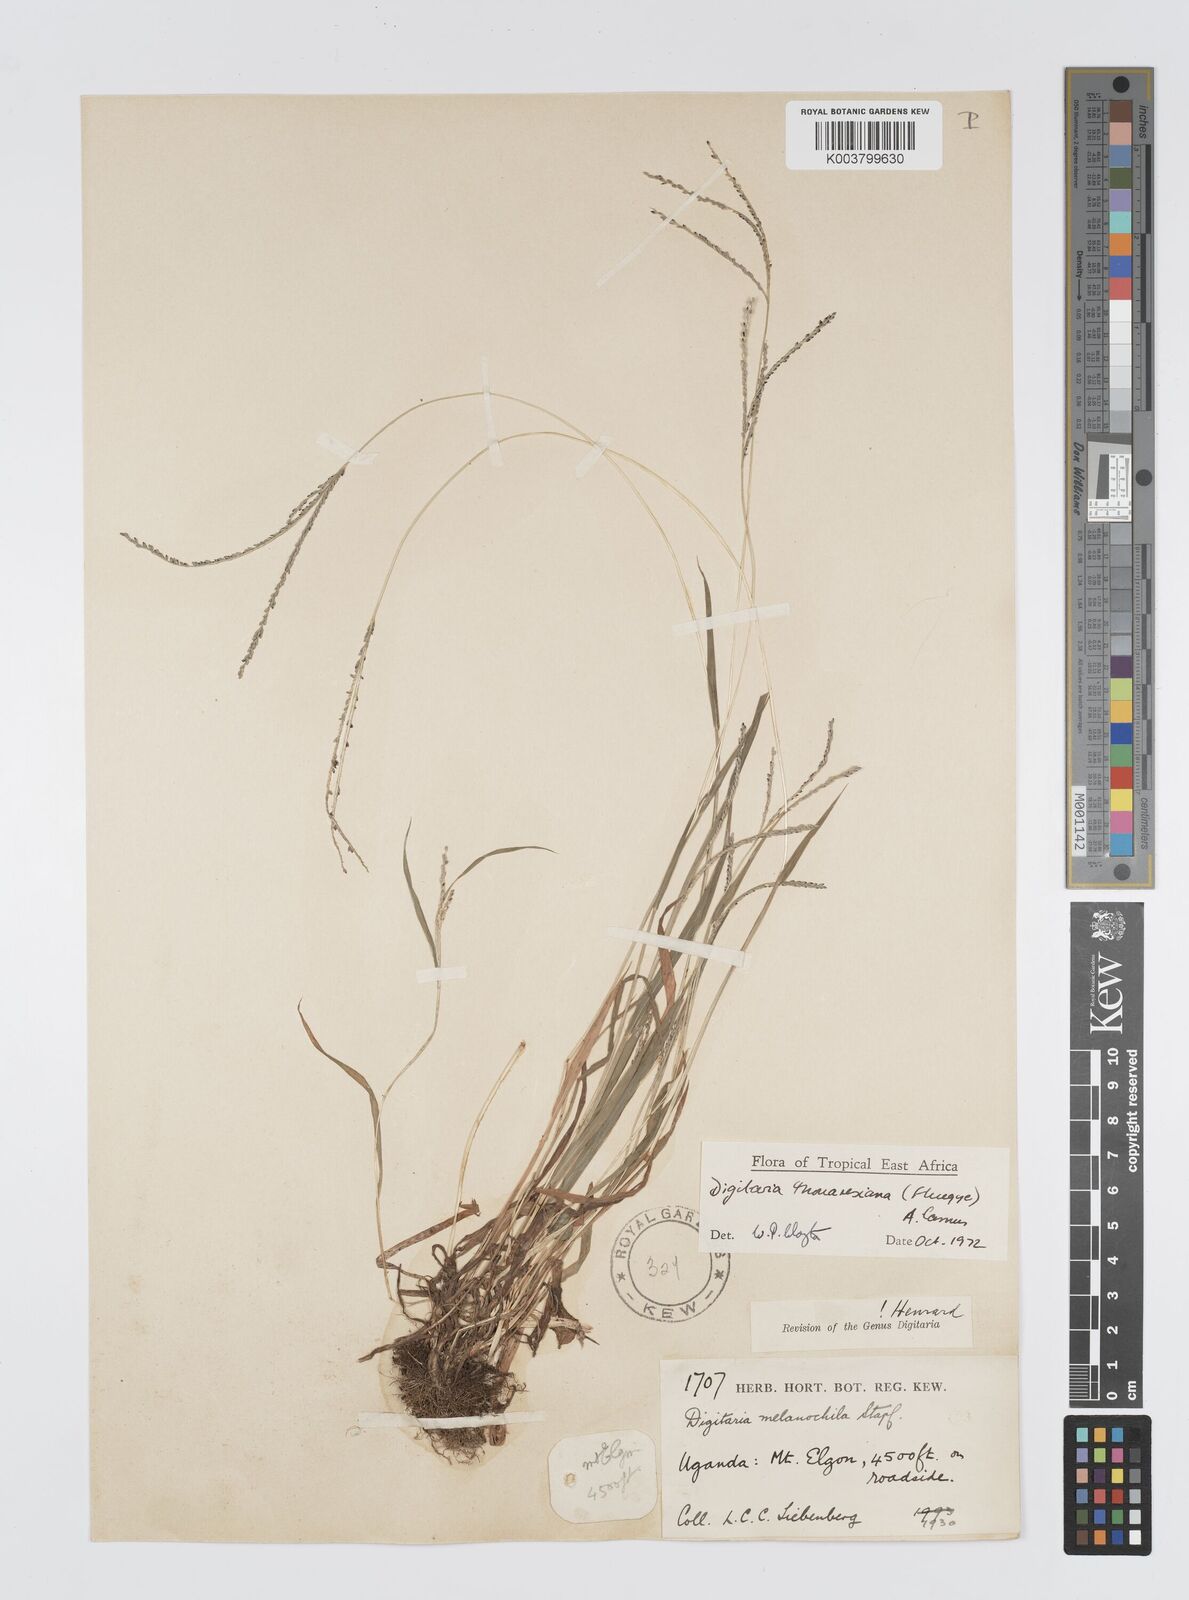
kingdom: Plantae
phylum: Tracheophyta
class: Liliopsida
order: Poales
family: Poaceae
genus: Digitaria
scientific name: Digitaria thouarsiana
